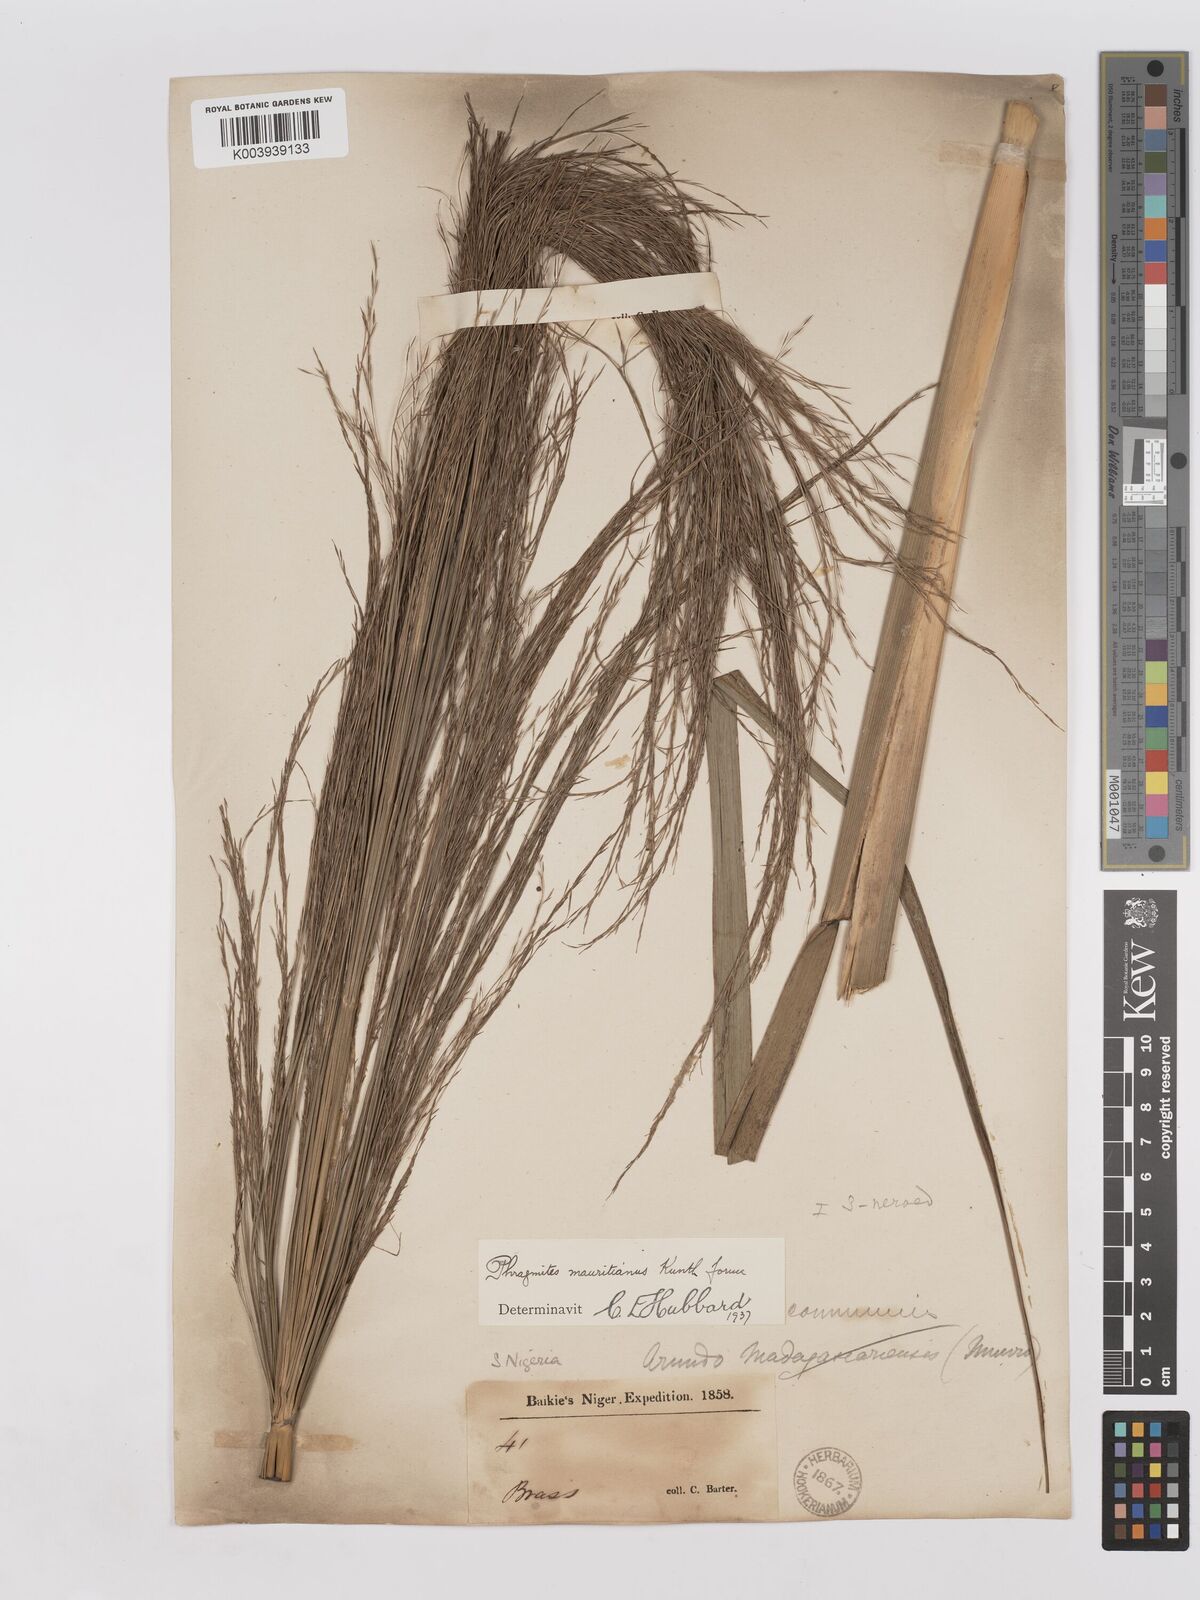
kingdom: Plantae
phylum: Tracheophyta
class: Liliopsida
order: Poales
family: Poaceae
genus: Phragmites
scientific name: Phragmites karka
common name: Tropical reed
